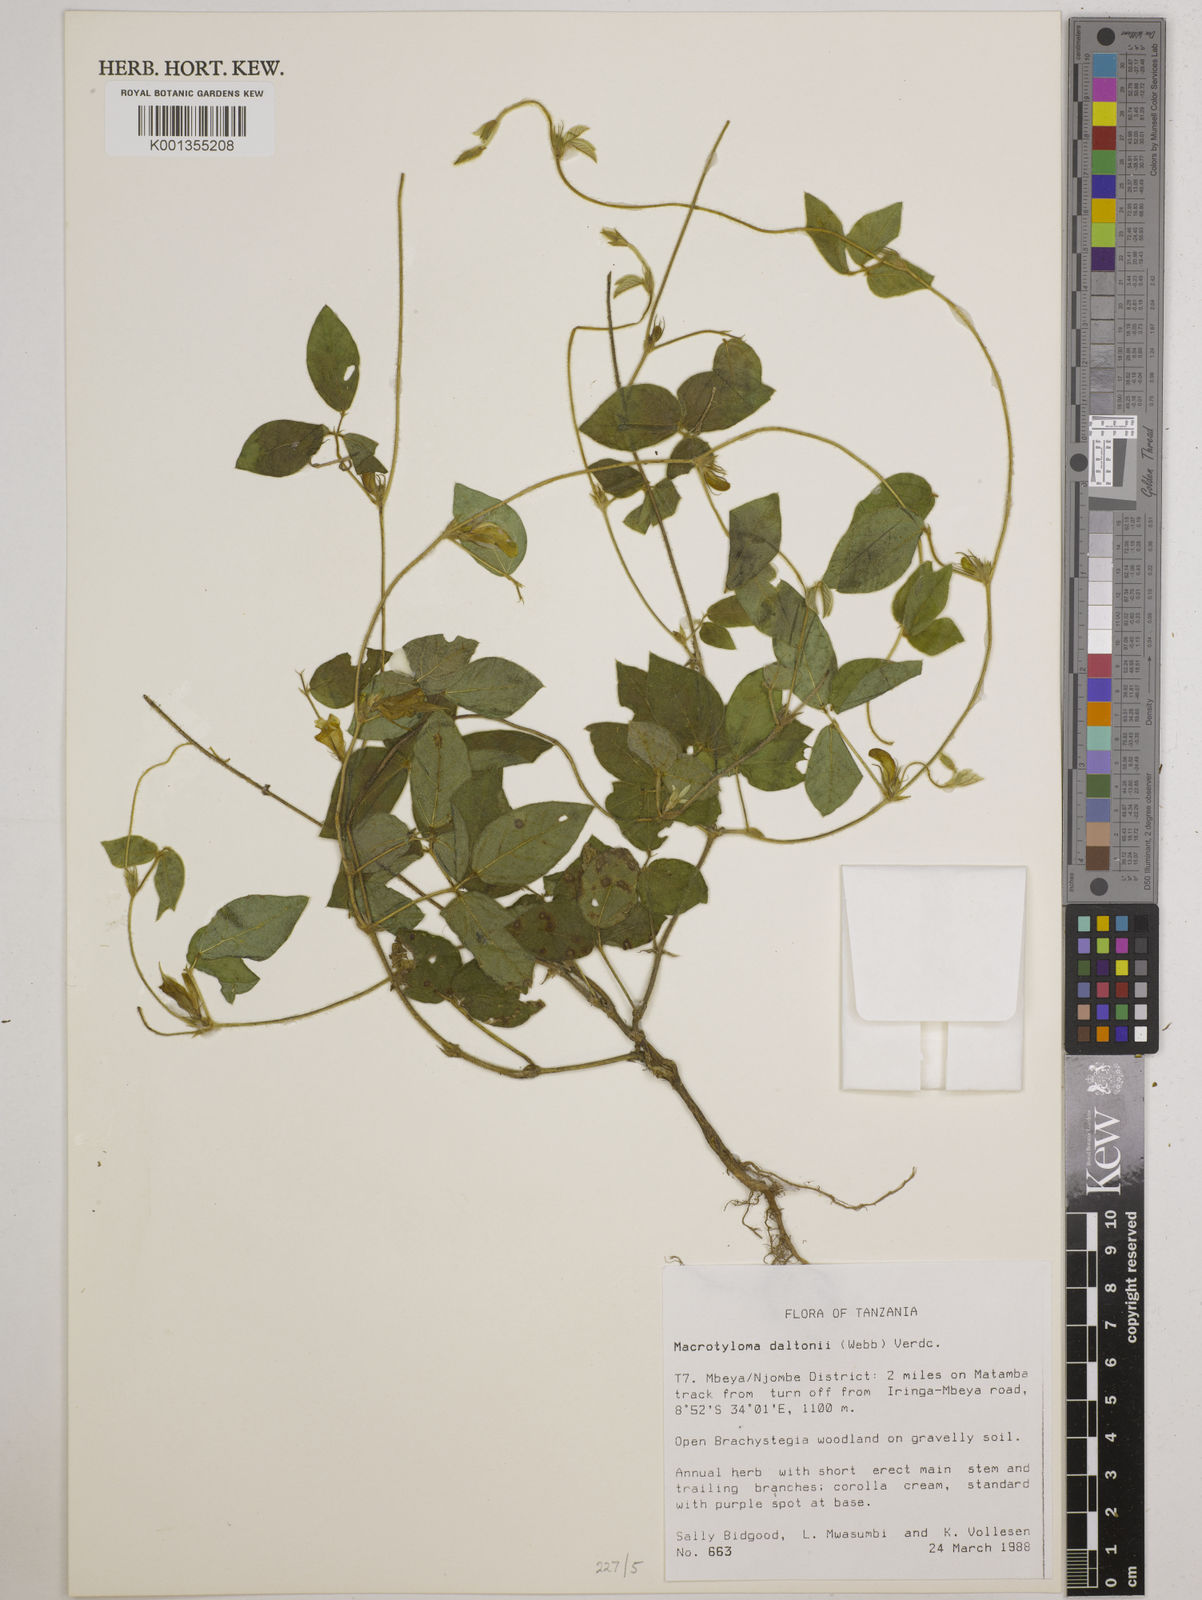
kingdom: Plantae
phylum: Tracheophyta
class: Magnoliopsida
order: Fabales
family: Fabaceae
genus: Macrotyloma
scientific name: Macrotyloma daltonii
